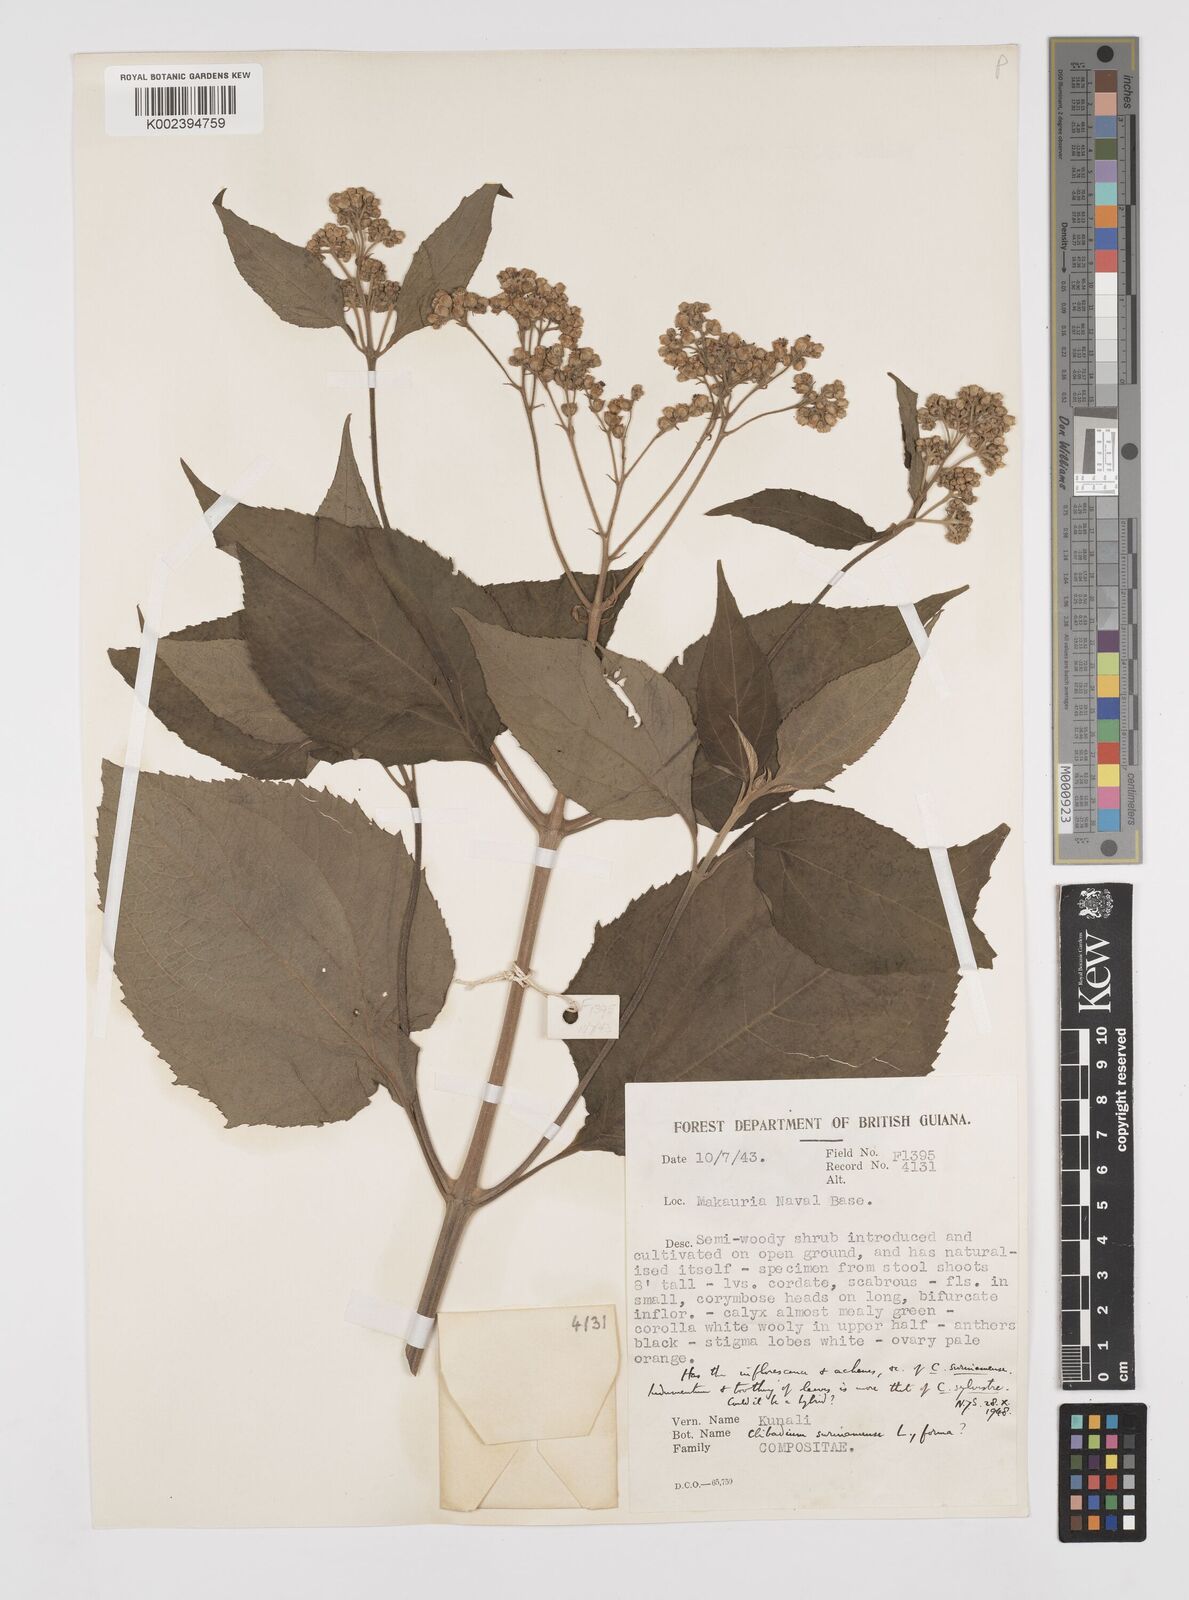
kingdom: Plantae
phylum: Tracheophyta
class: Magnoliopsida
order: Asterales
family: Asteraceae
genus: Clibadium
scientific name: Clibadium surinamense
